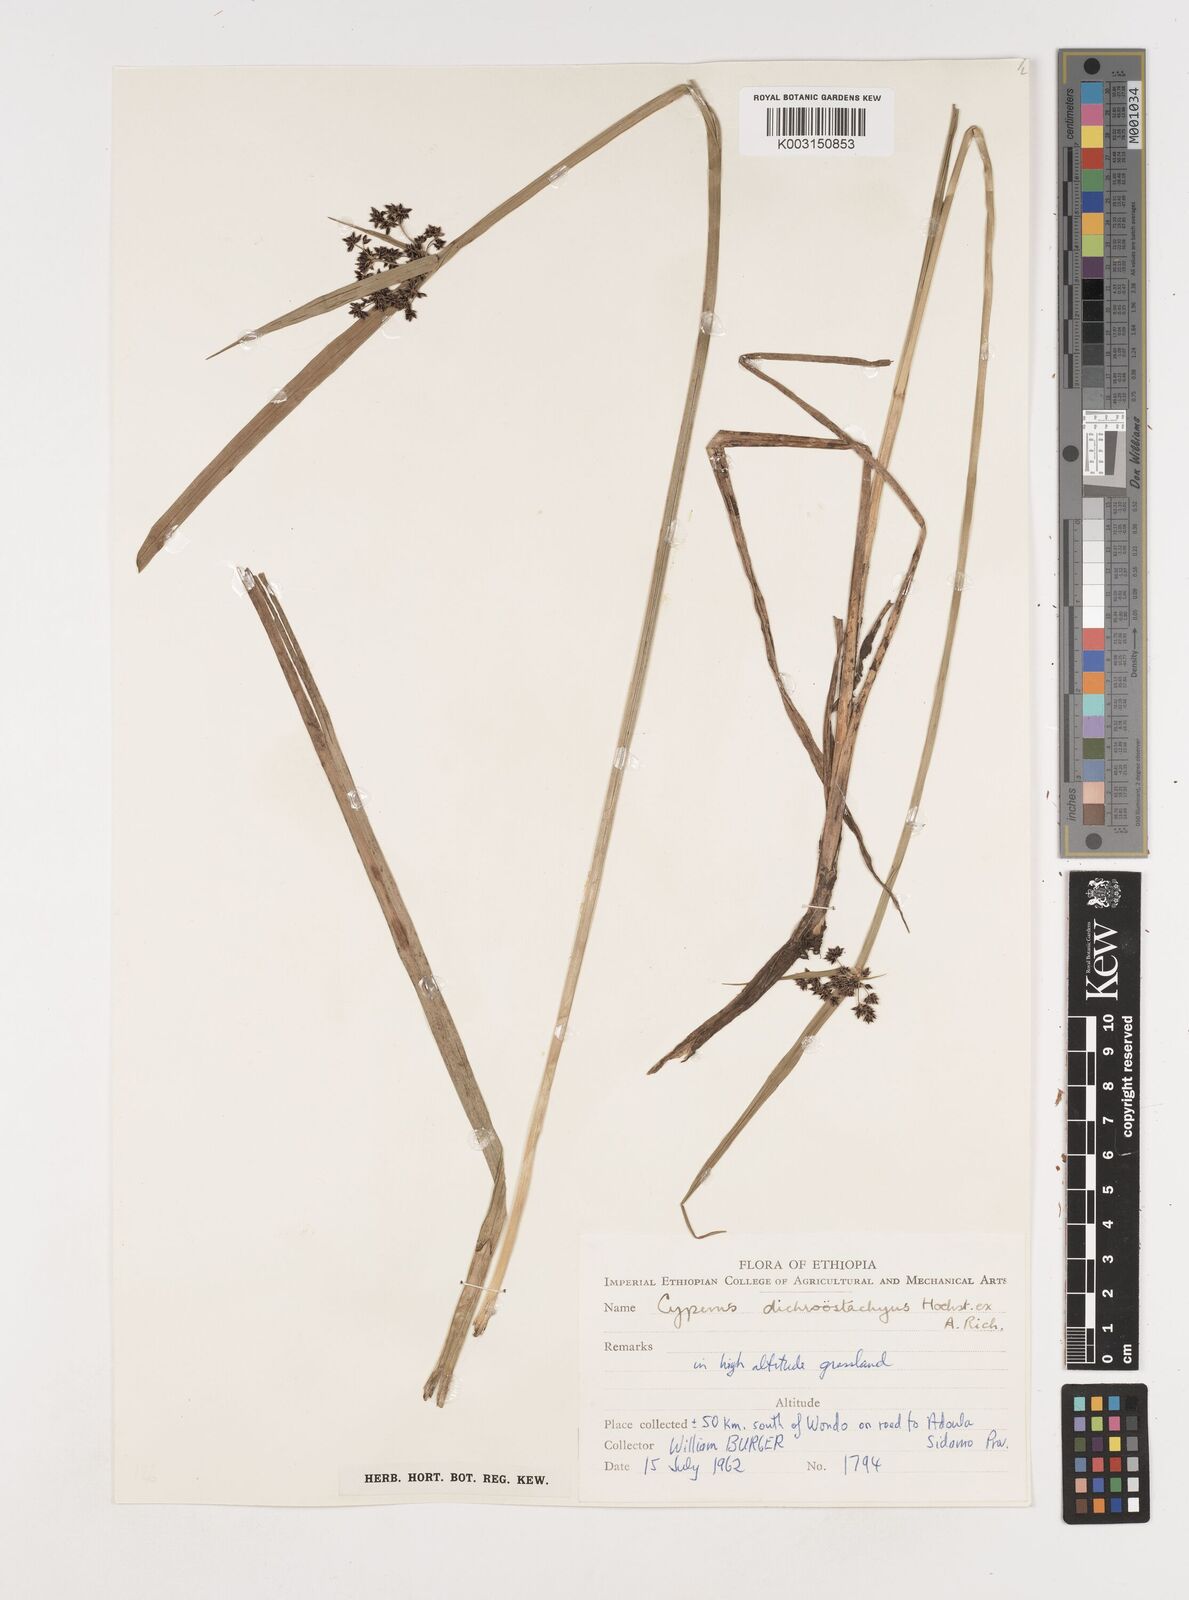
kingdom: Plantae
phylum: Tracheophyta
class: Liliopsida
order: Poales
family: Cyperaceae
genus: Cyperus
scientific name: Cyperus dichrostachyus
